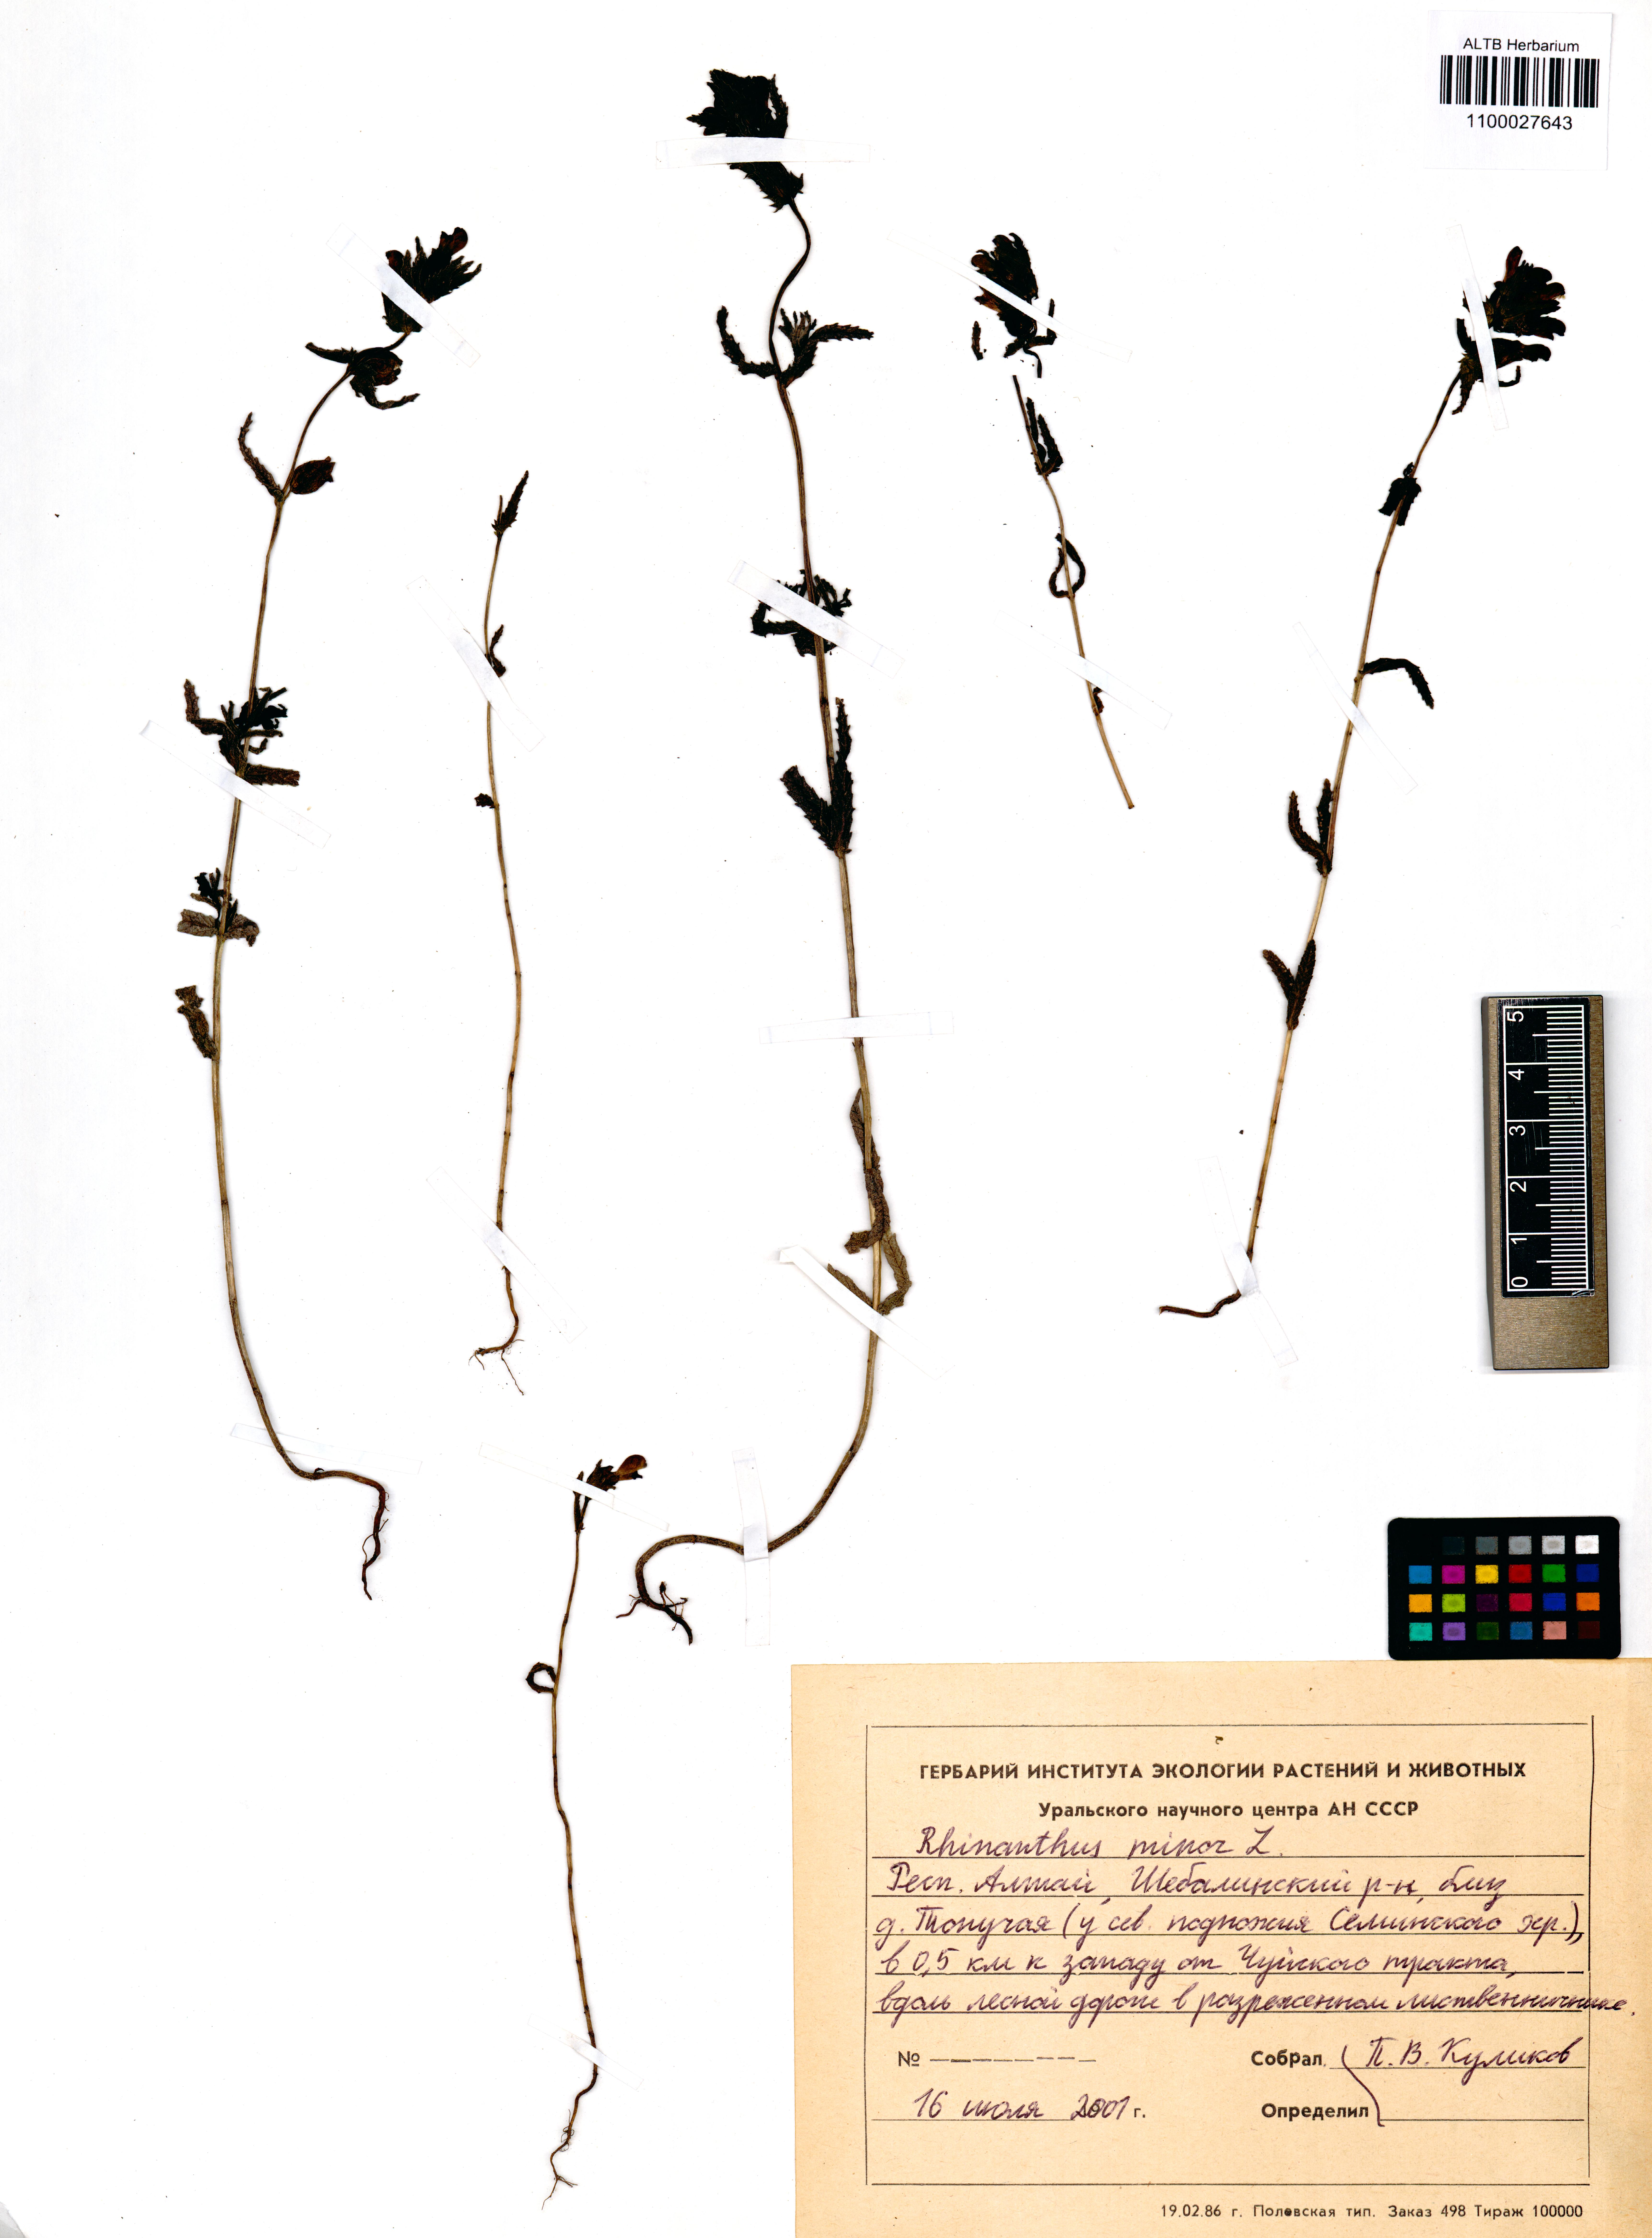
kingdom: Plantae
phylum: Tracheophyta
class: Magnoliopsida
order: Lamiales
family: Orobanchaceae
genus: Rhinanthus
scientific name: Rhinanthus minor
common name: Yellow-rattle
